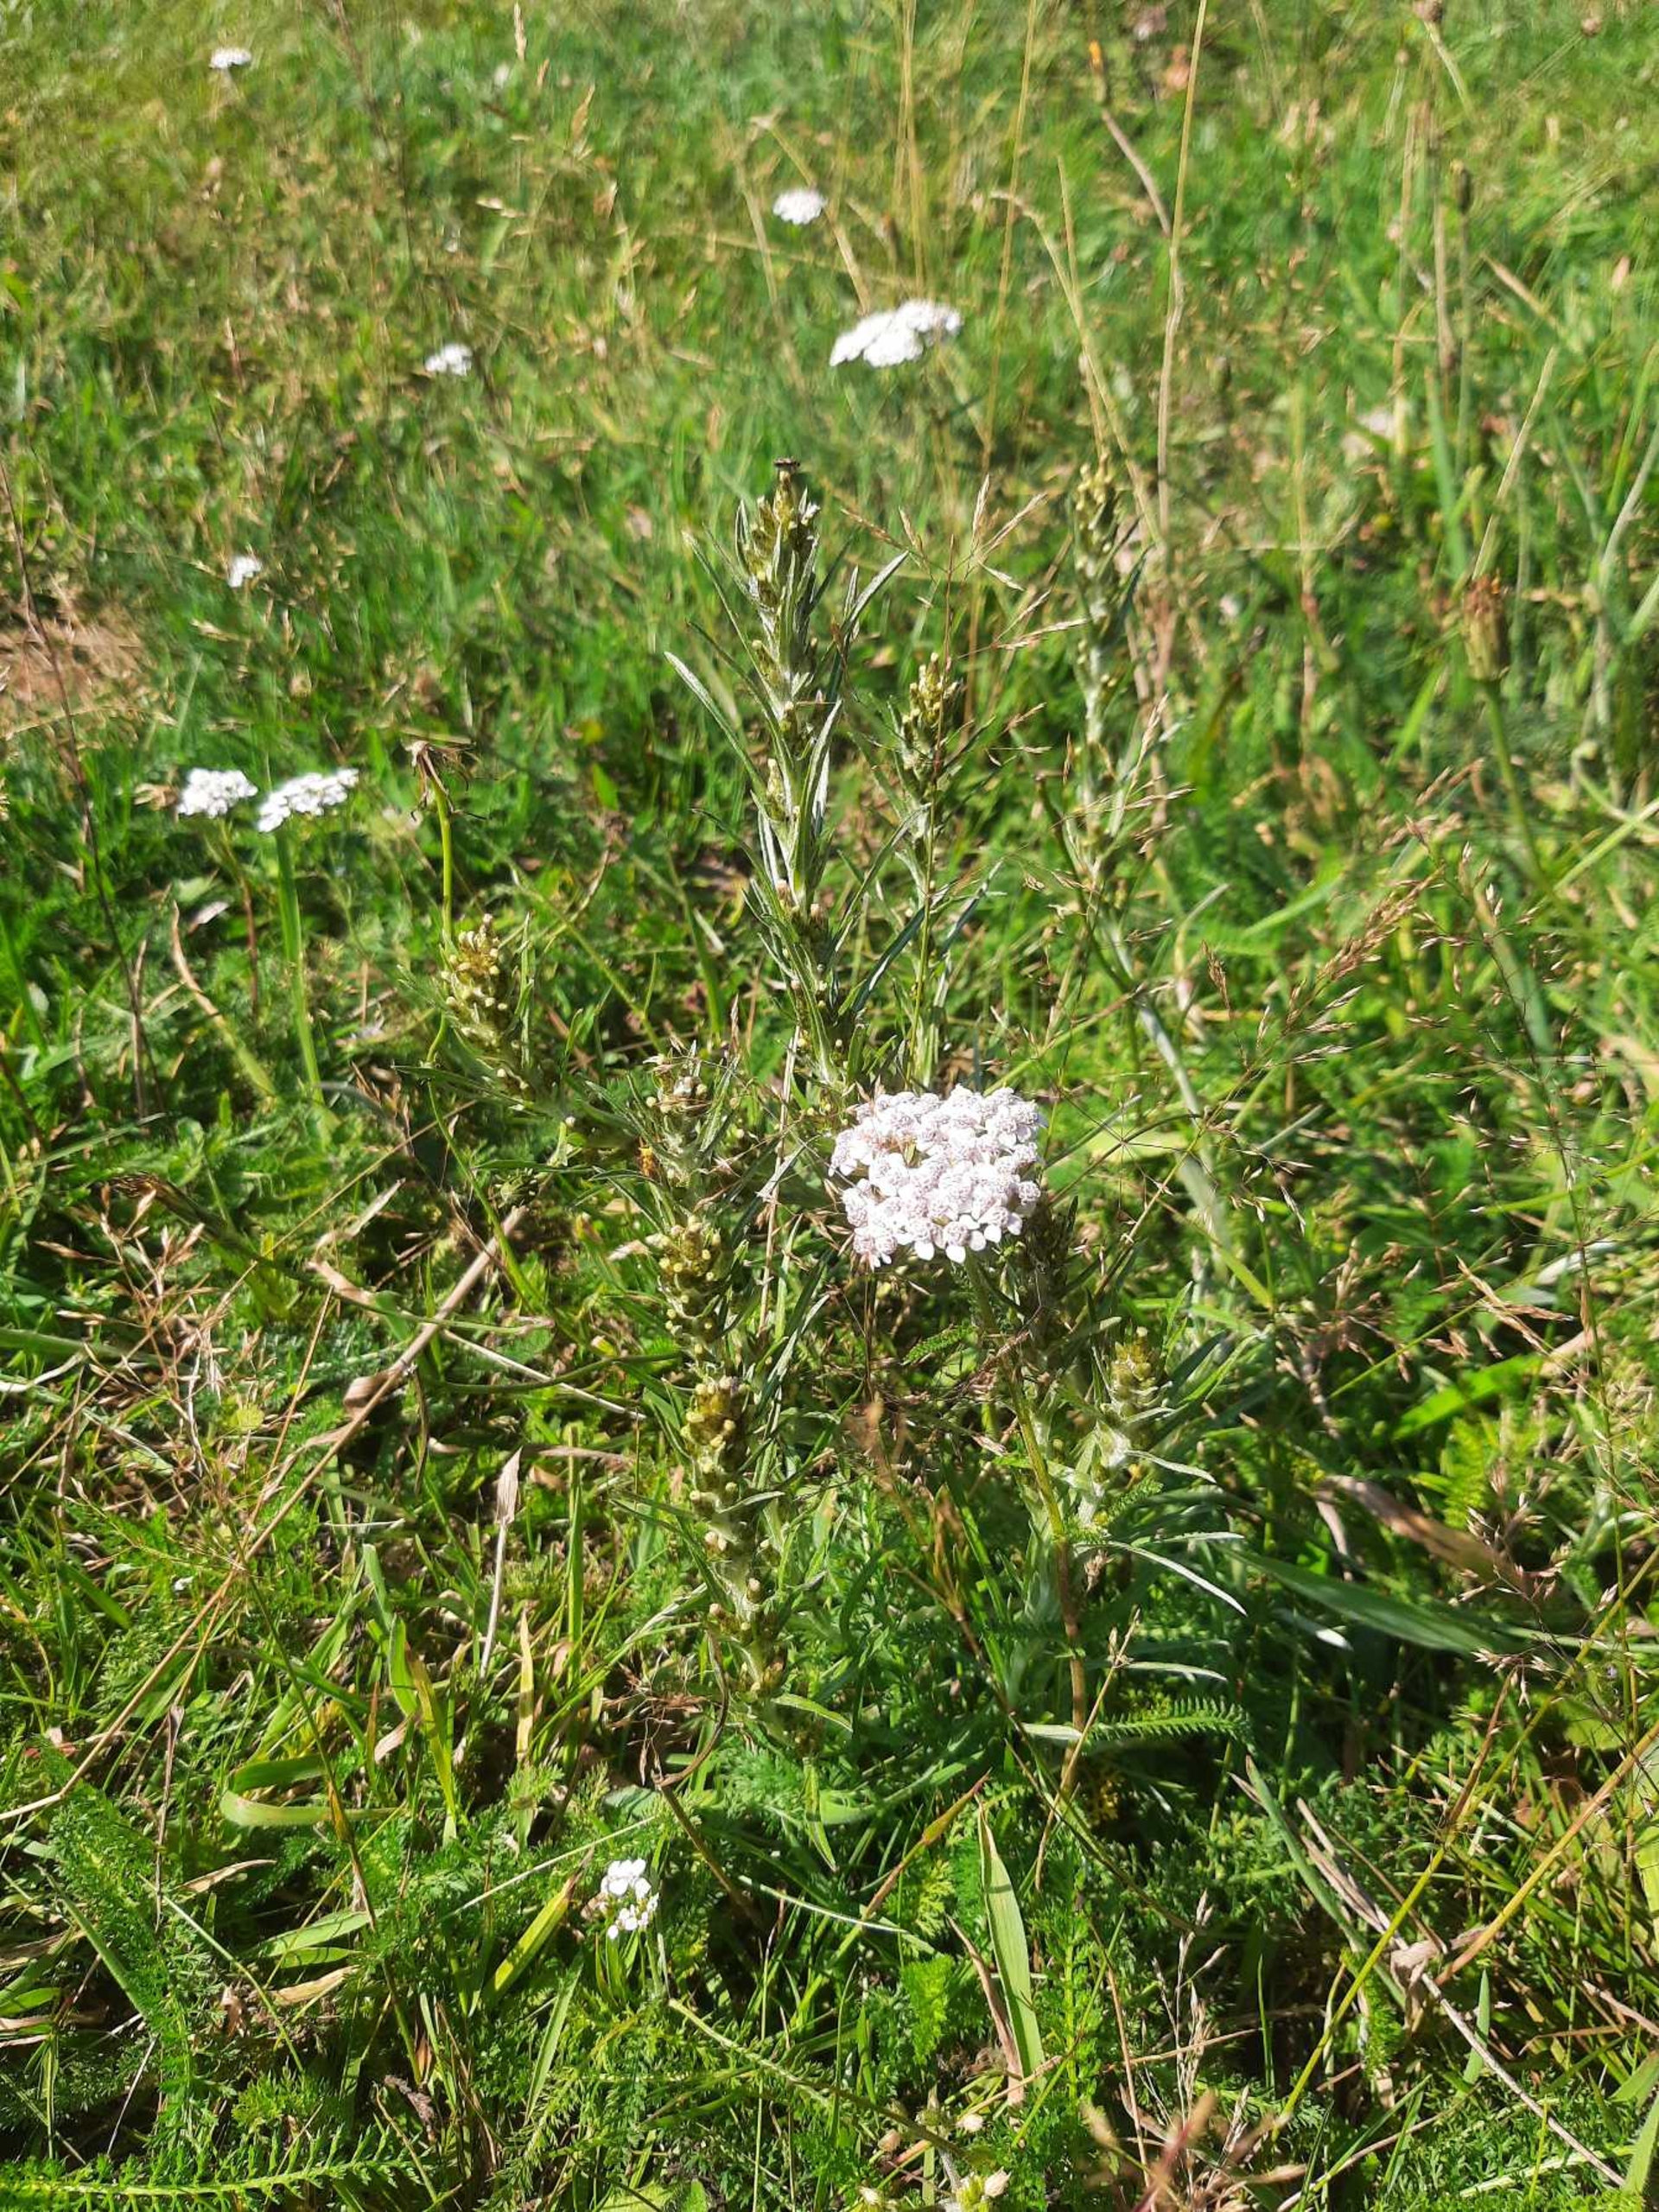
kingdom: Plantae
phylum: Tracheophyta
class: Magnoliopsida
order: Asterales
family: Asteraceae
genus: Omalotheca
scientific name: Omalotheca sylvatica
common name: Rank evighedsblomst
